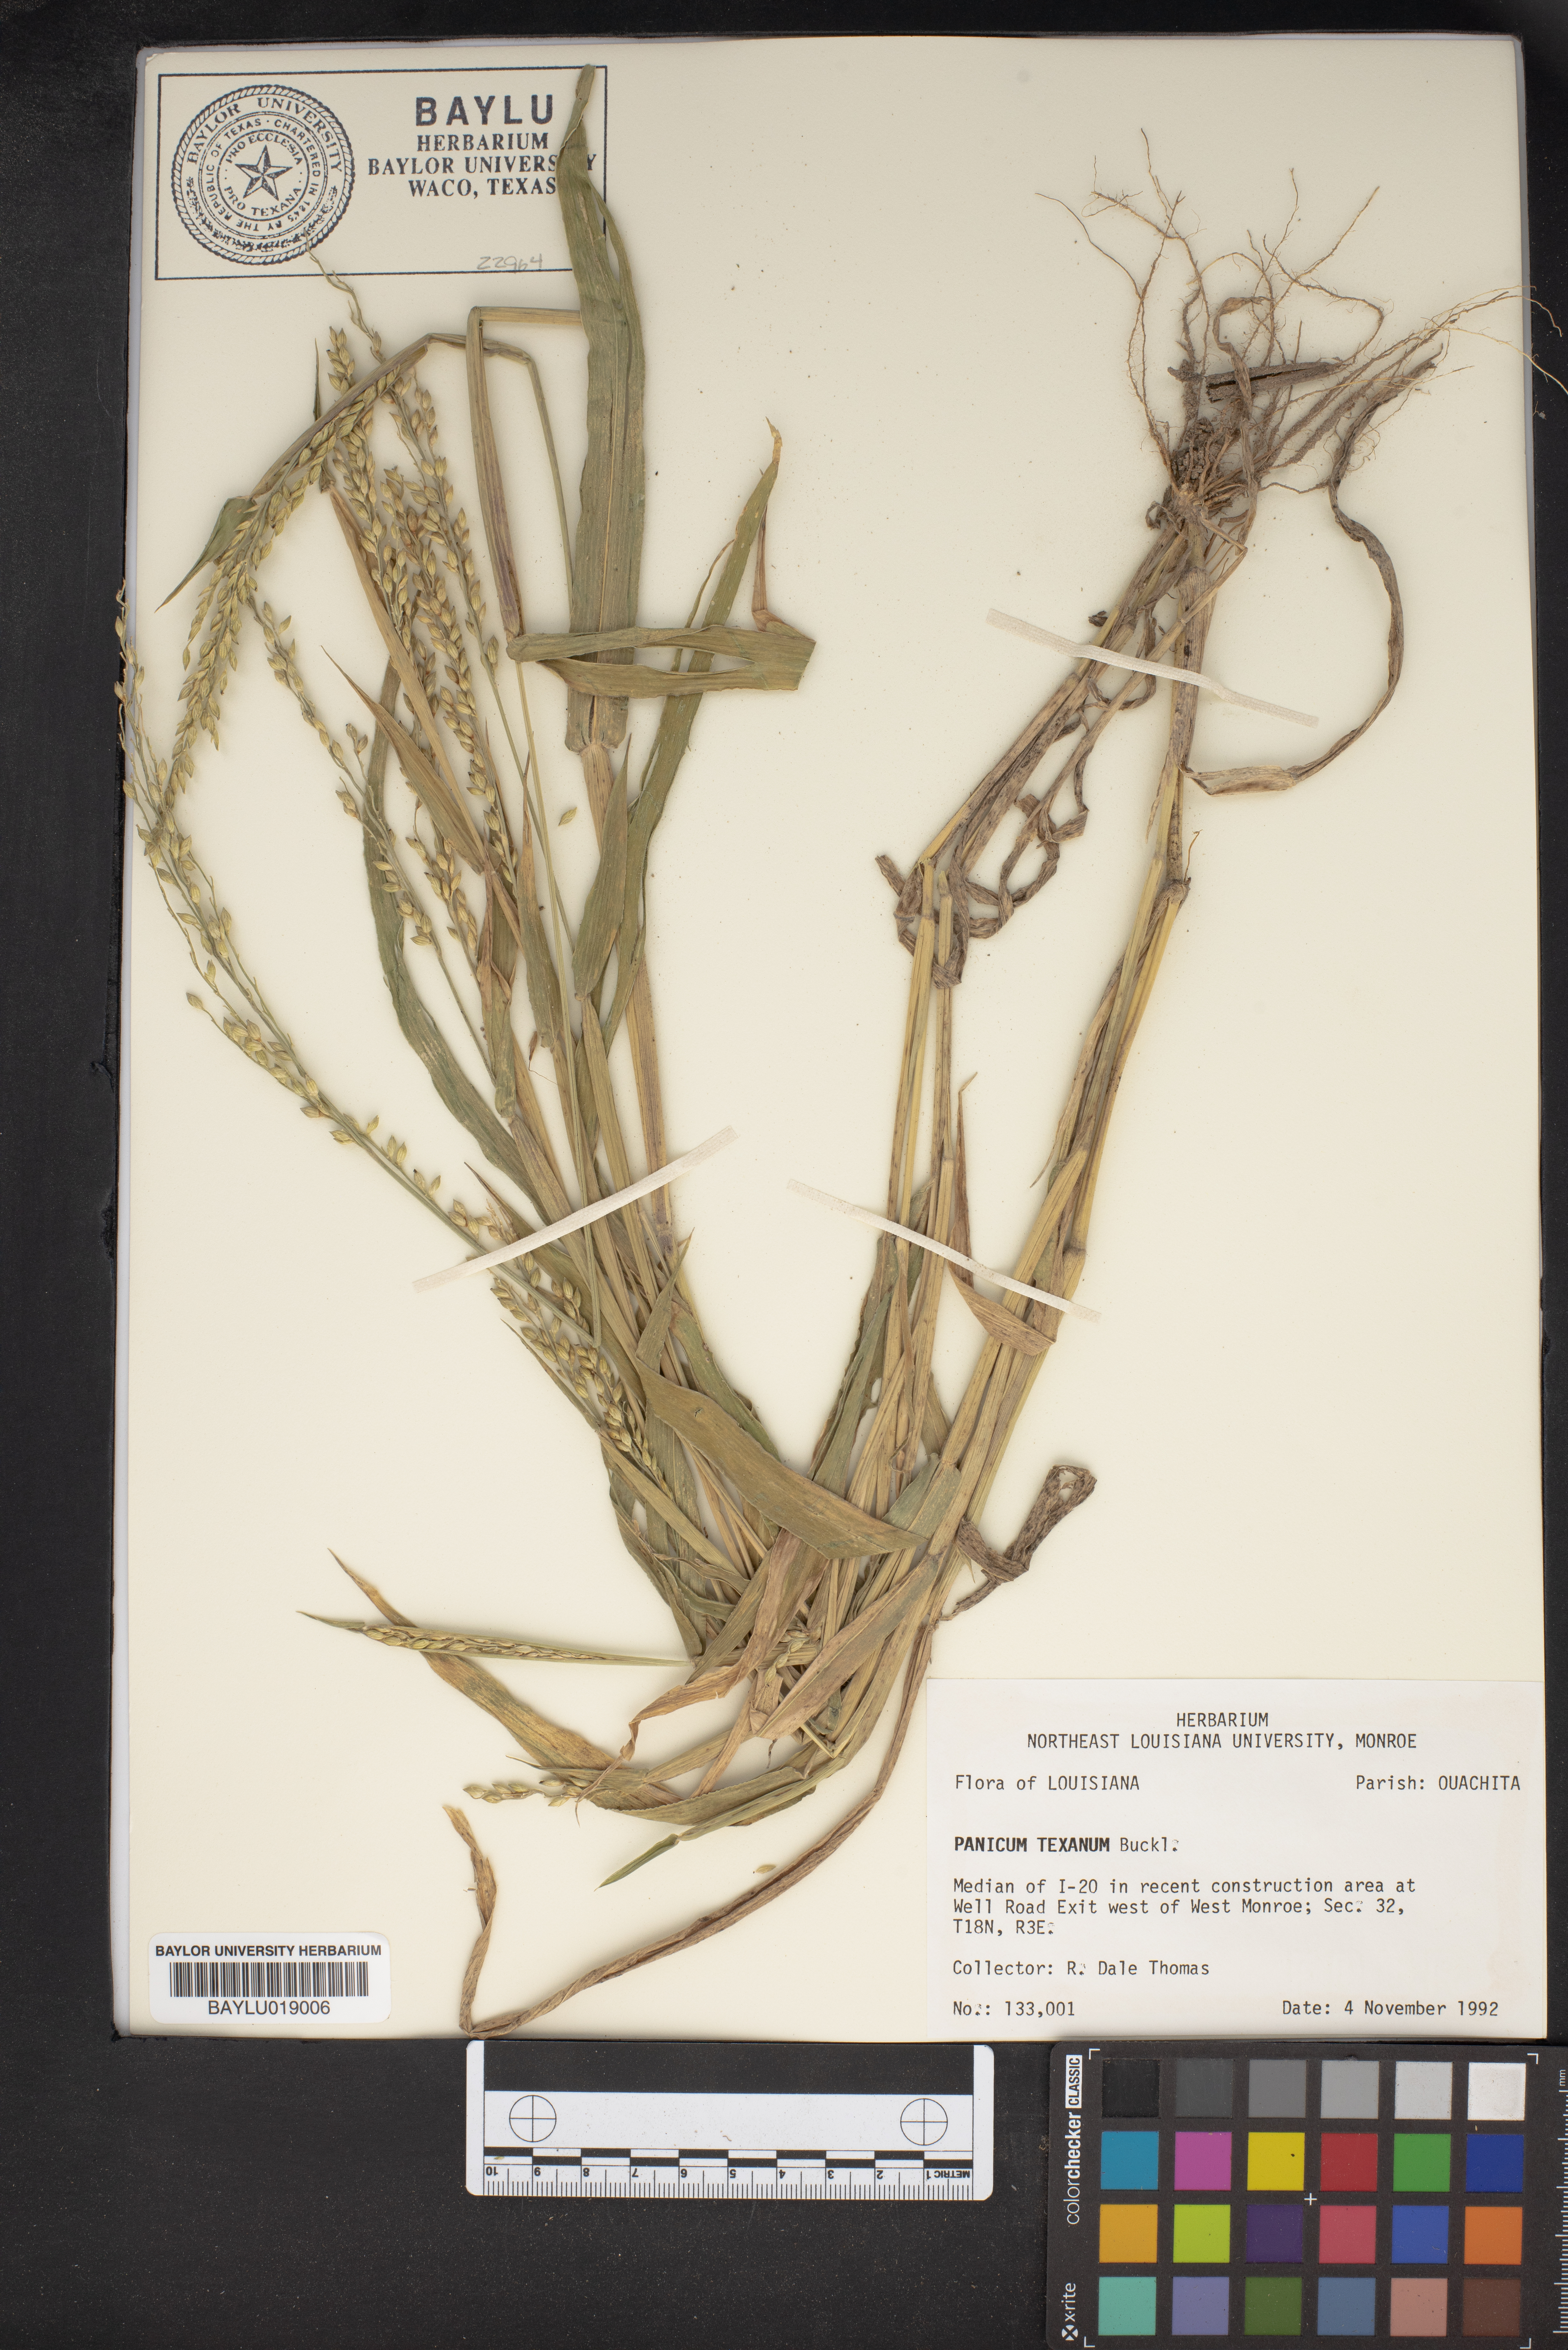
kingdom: Plantae
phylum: Tracheophyta
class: Liliopsida
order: Poales
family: Poaceae
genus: Urochloa
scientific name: Urochloa texana
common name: Texas millet
